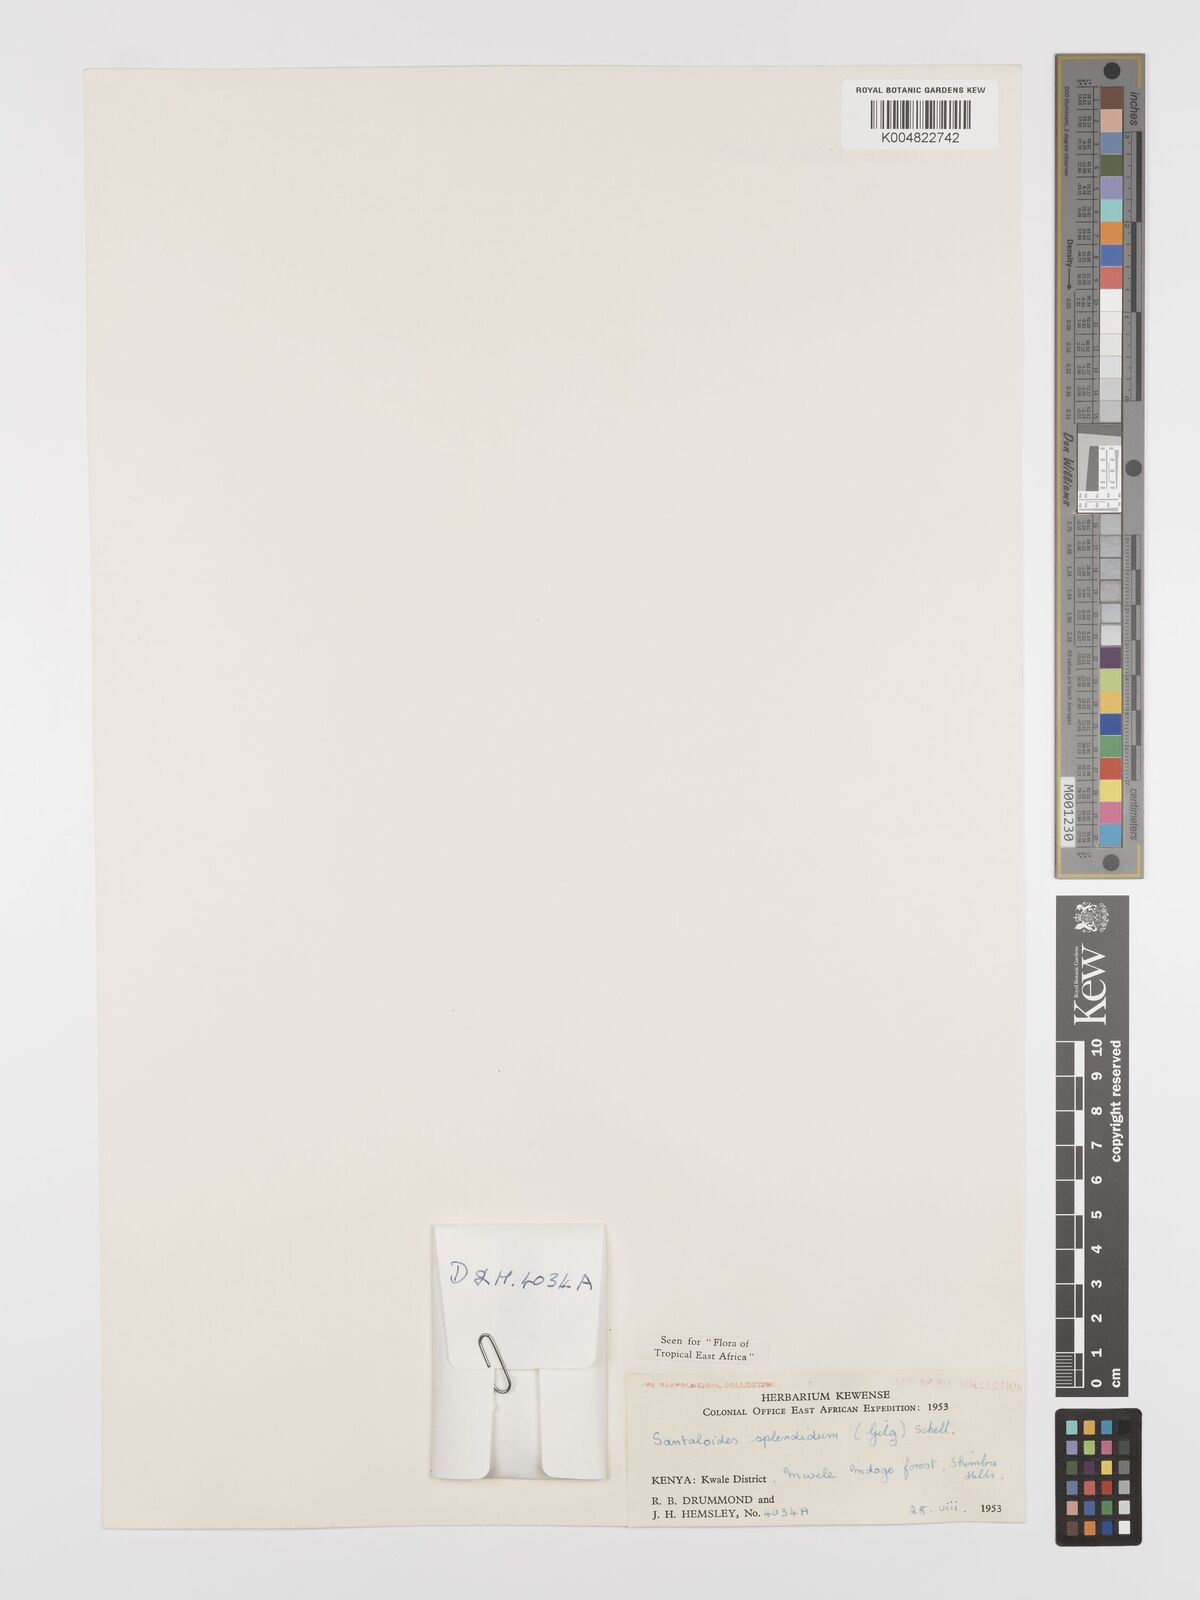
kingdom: Plantae
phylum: Tracheophyta
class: Magnoliopsida
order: Oxalidales
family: Connaraceae
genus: Rourea
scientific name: Rourea minor
